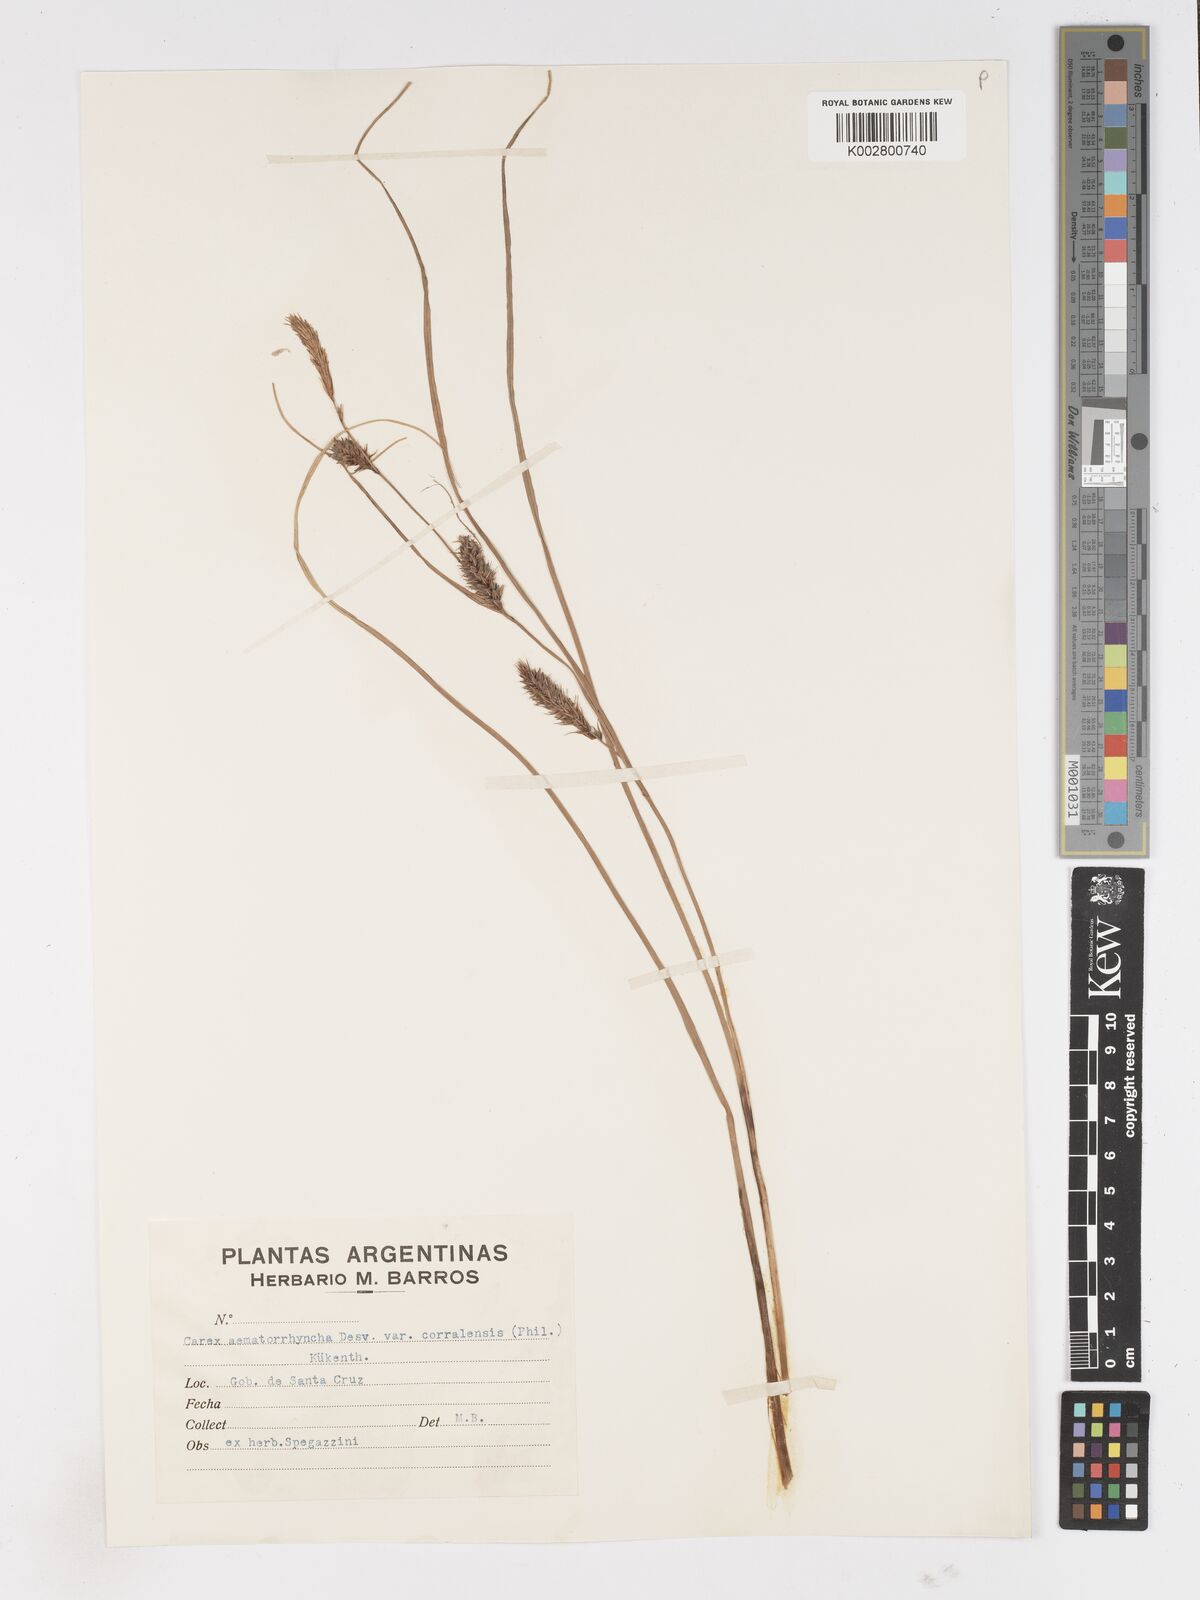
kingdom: Plantae
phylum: Tracheophyta
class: Liliopsida
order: Poales
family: Cyperaceae
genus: Carex
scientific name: Carex aematorhyncha
